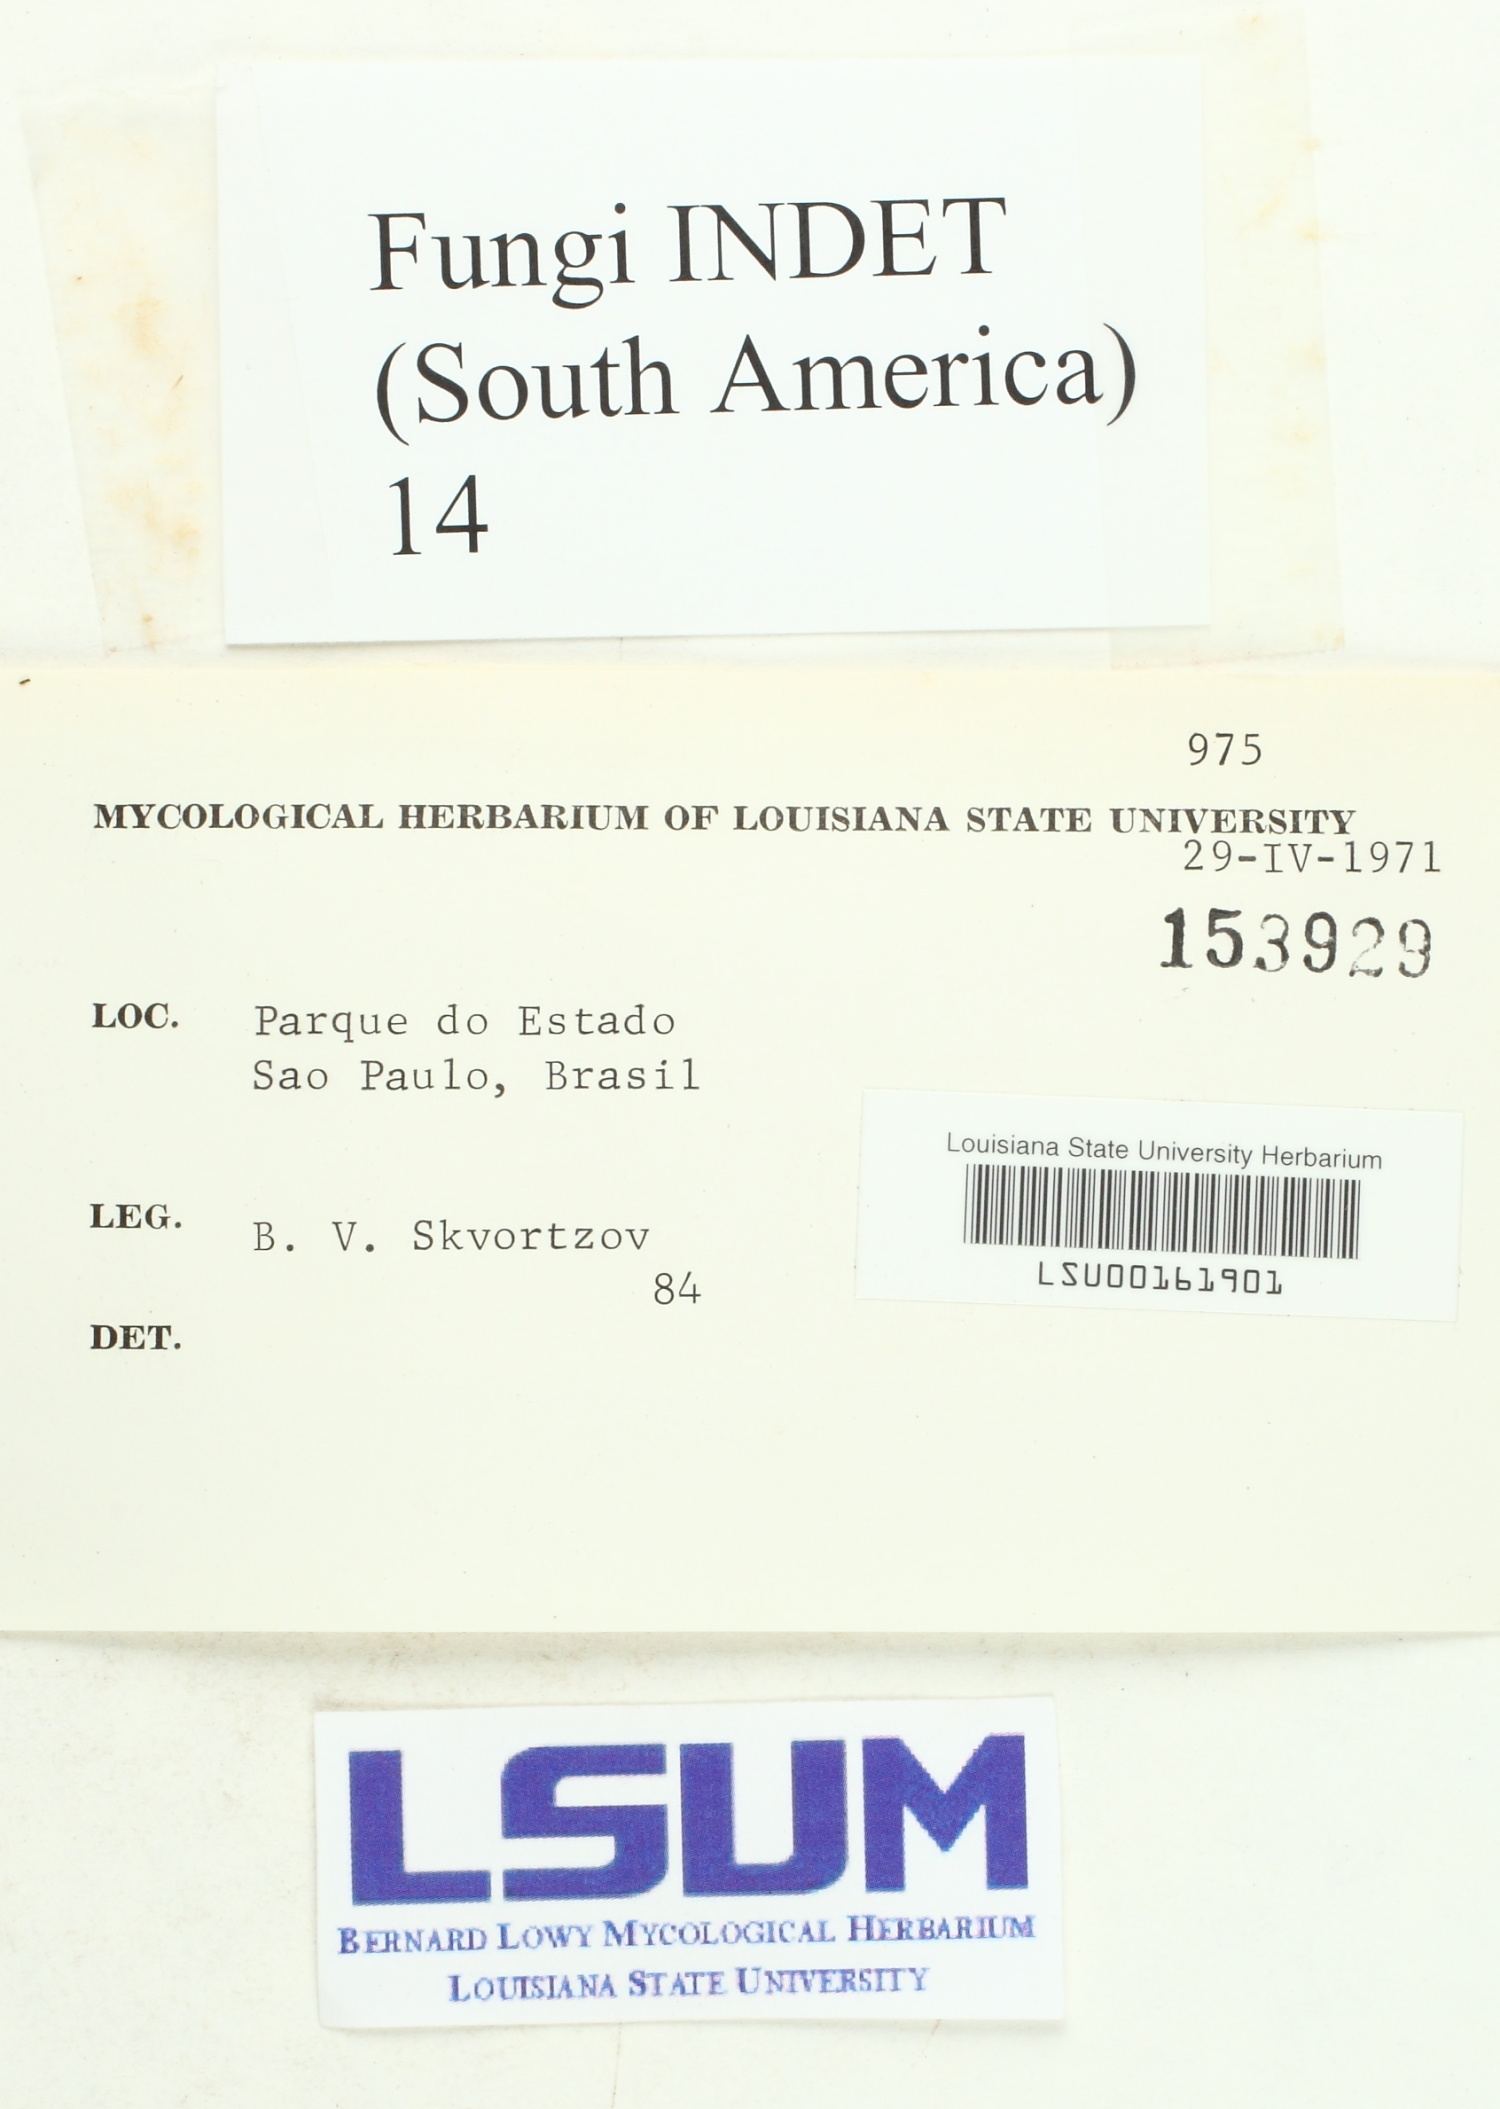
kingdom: Fungi
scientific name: Fungi
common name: Fungi
